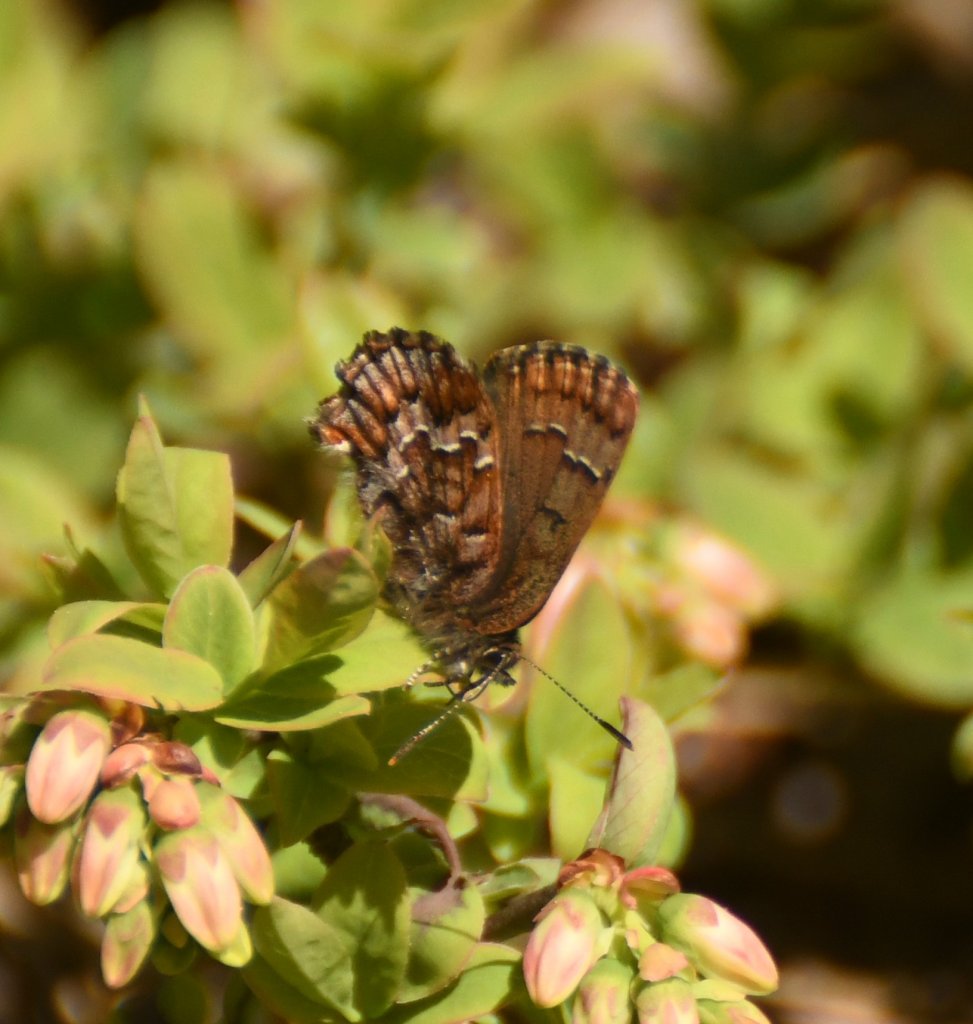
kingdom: Animalia
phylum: Arthropoda
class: Insecta
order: Lepidoptera
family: Lycaenidae
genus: Incisalia
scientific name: Incisalia niphon
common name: Eastern Pine Elfin
